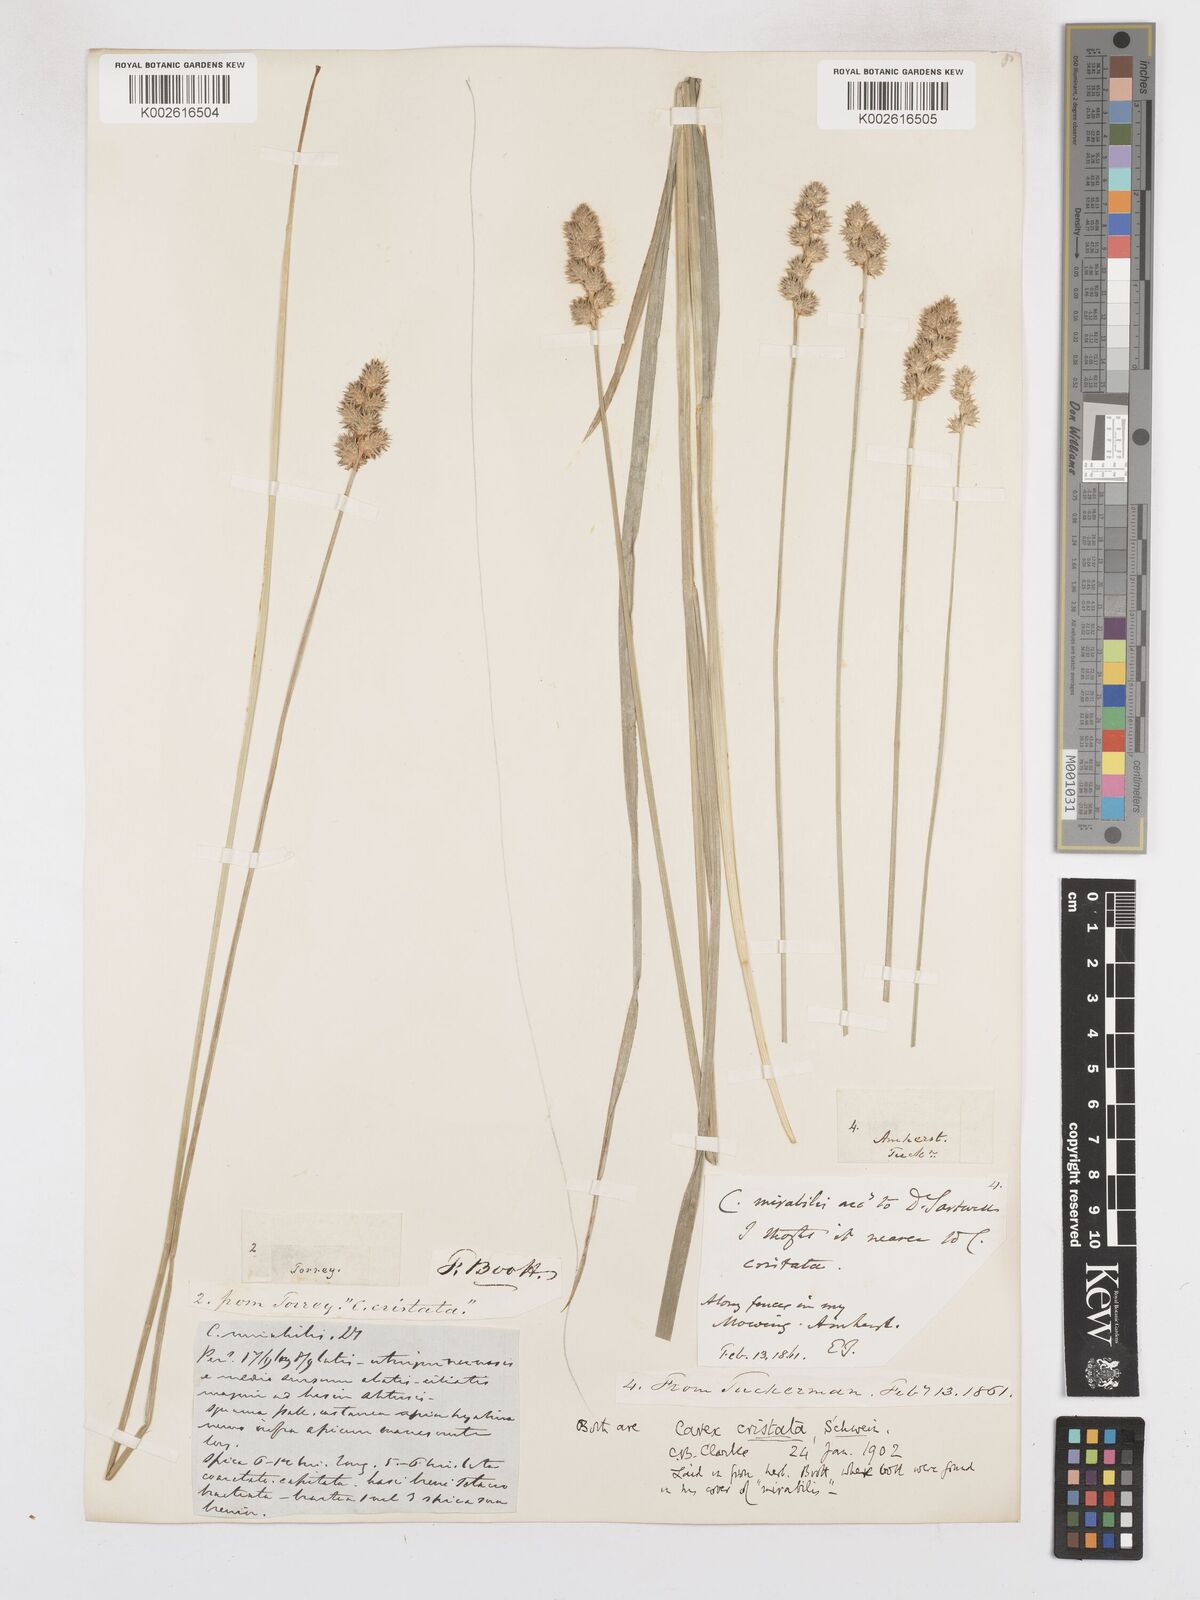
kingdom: Plantae
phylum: Tracheophyta
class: Liliopsida
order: Poales
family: Cyperaceae
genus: Carex
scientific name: Carex cristatella
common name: Crested oval sedge
